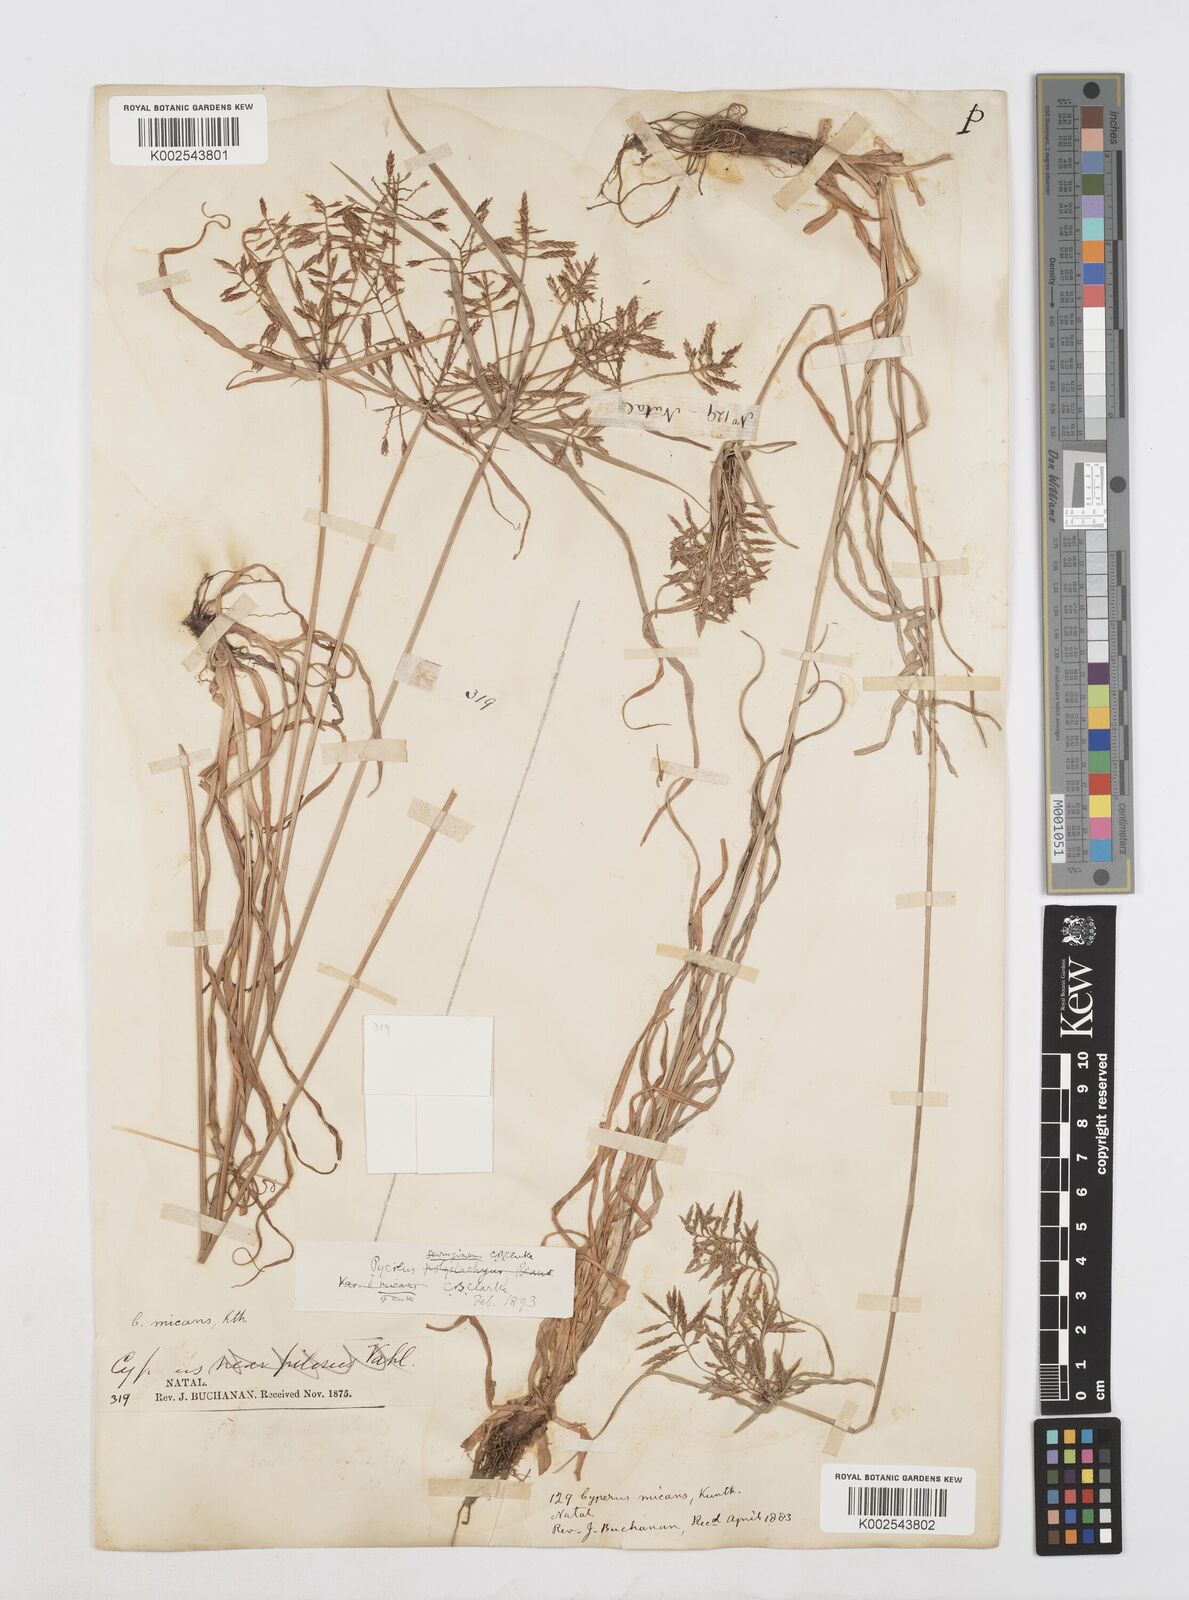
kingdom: Plantae
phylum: Tracheophyta
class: Liliopsida
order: Poales
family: Cyperaceae
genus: Cyperus
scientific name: Cyperus intactus
